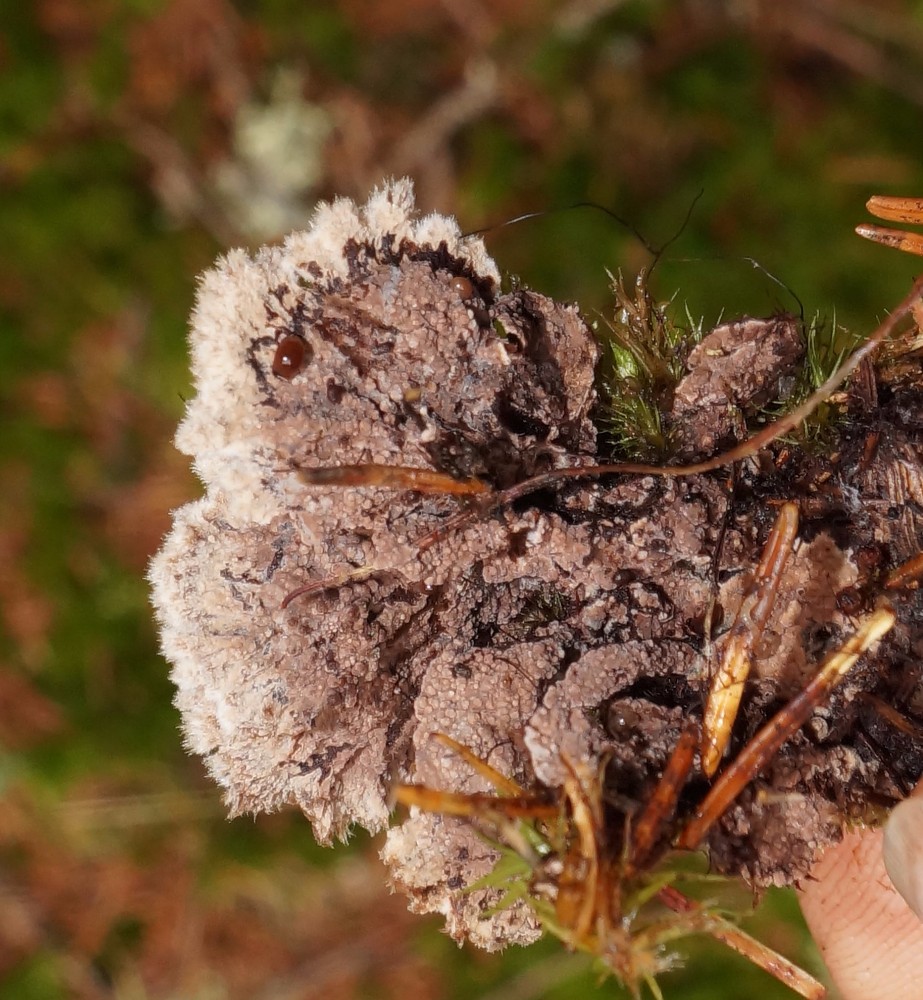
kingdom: Fungi
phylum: Basidiomycota
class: Agaricomycetes
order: Thelephorales
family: Thelephoraceae
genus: Thelephora
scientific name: Thelephora terrestris
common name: fliget frynsesvamp
